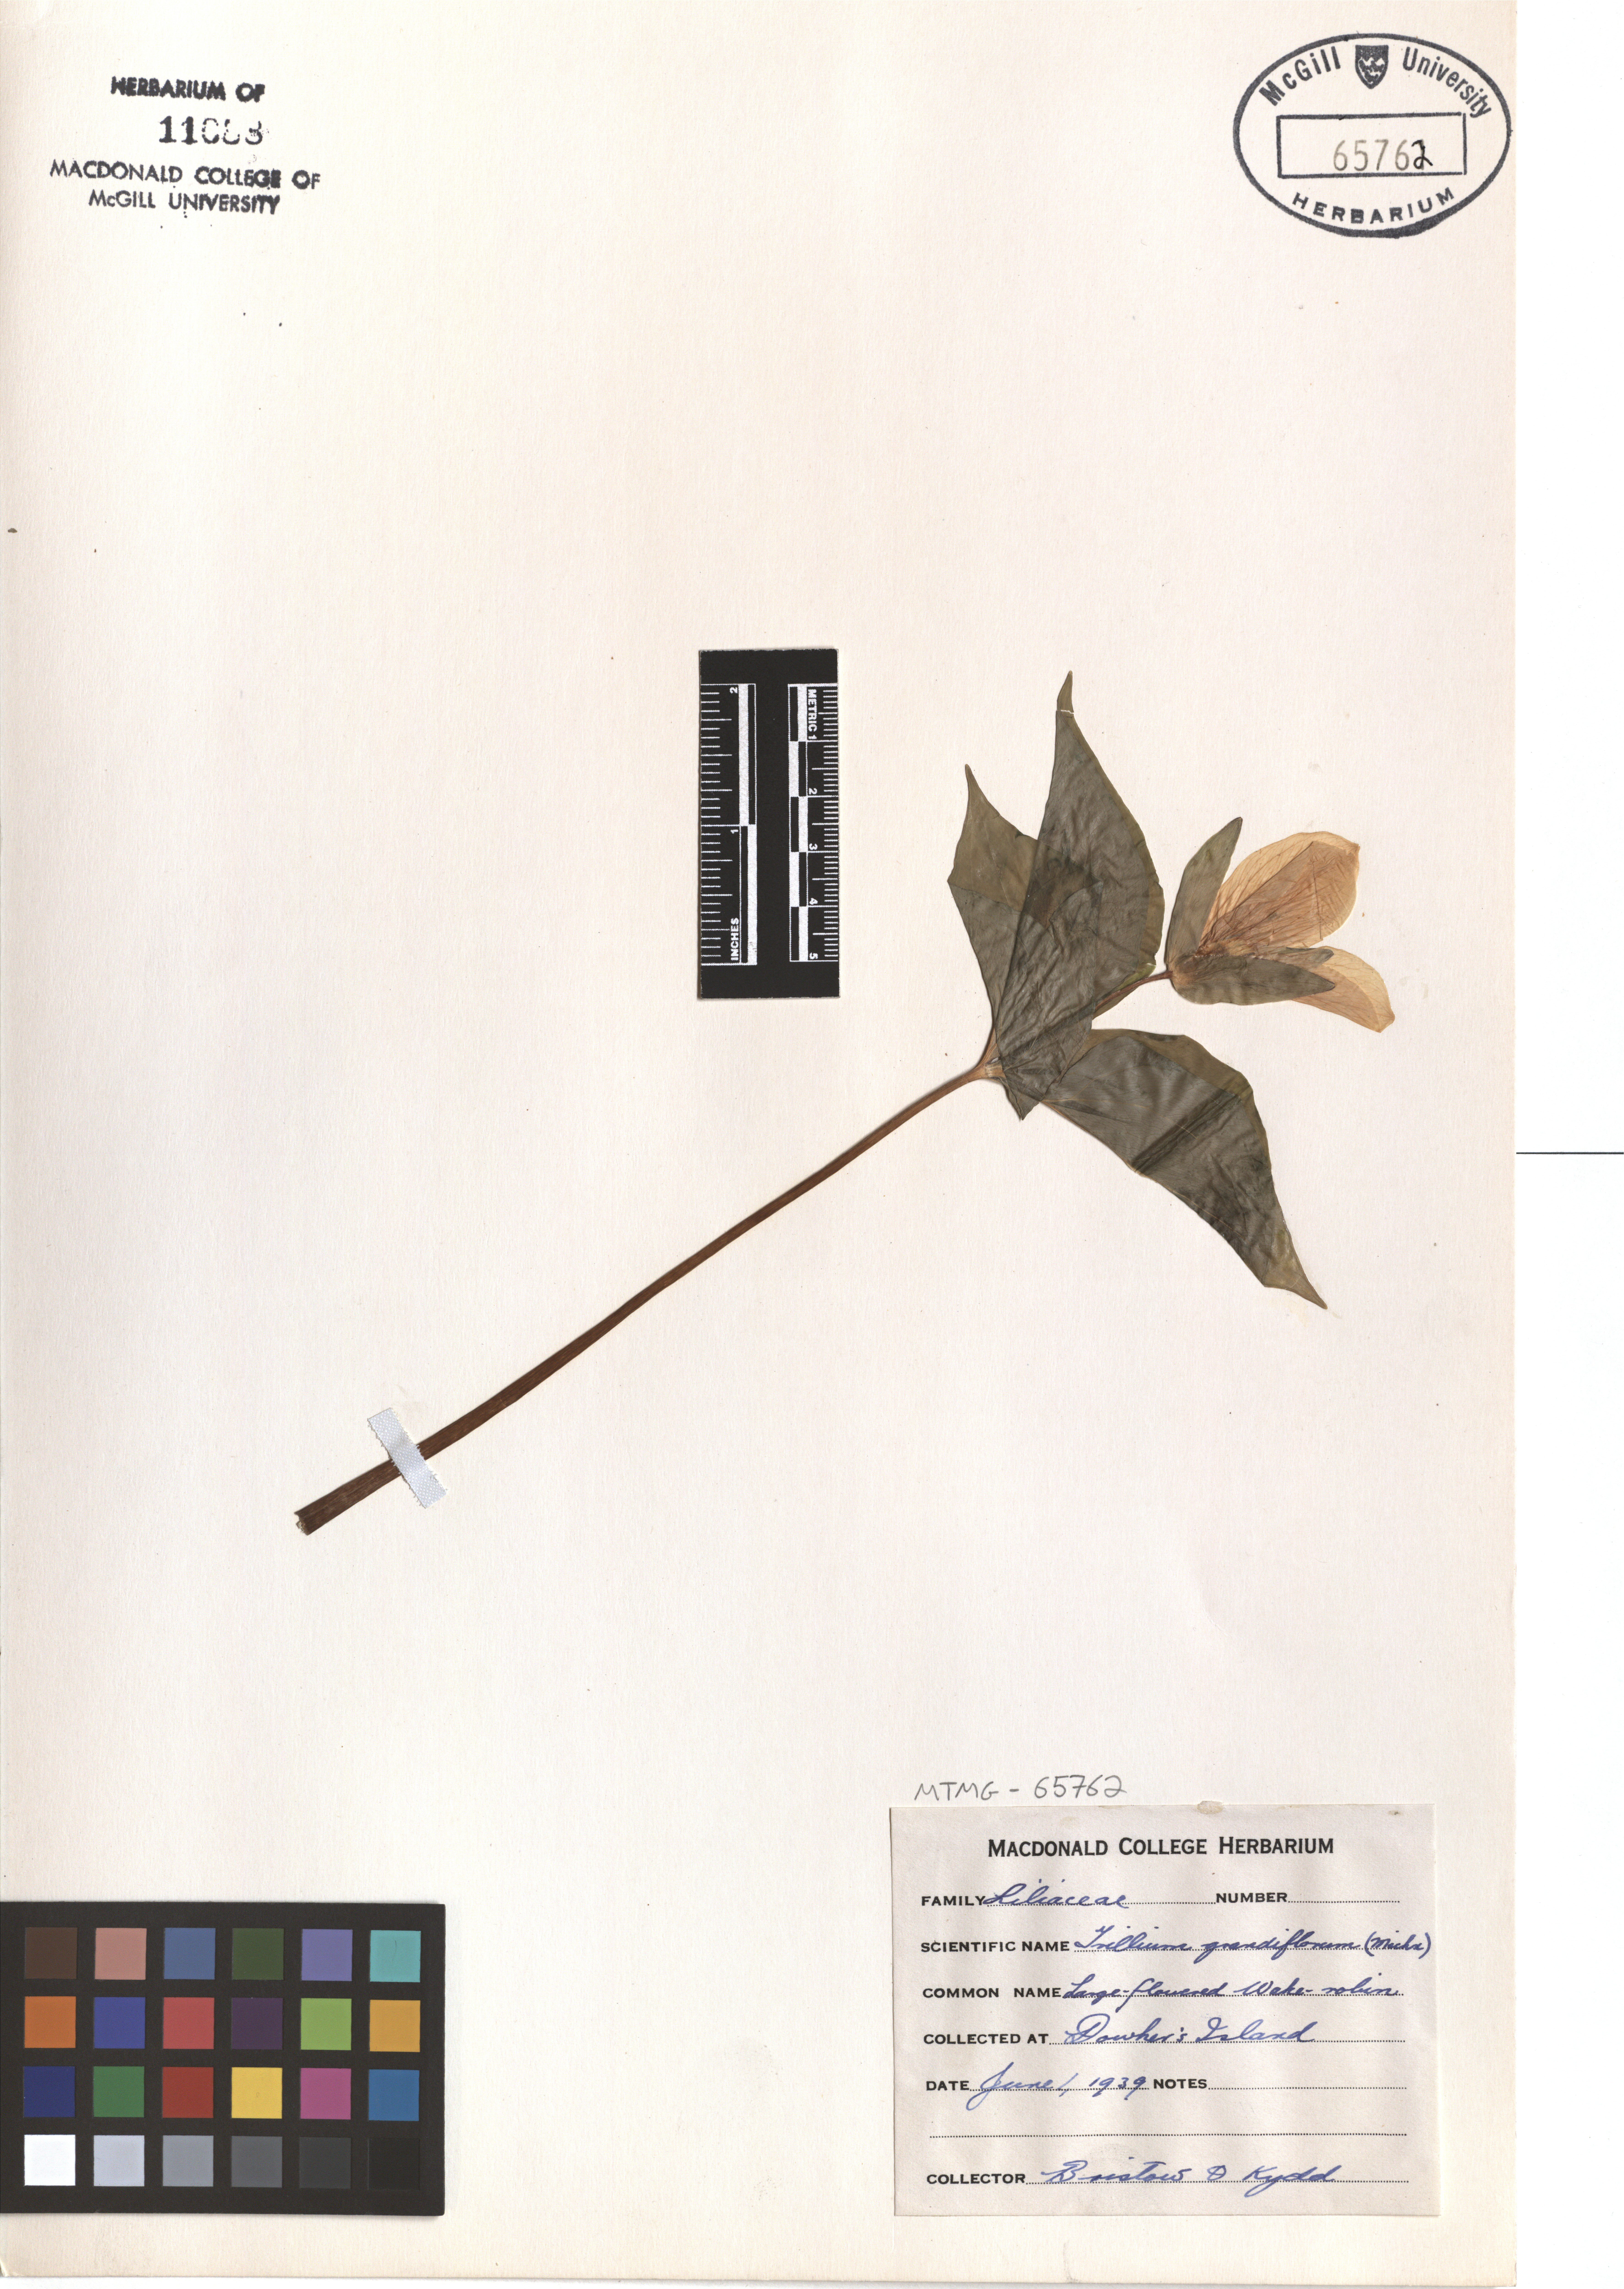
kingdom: Plantae
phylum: Tracheophyta
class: Liliopsida
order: Liliales
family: Melanthiaceae
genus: Trillium
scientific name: Trillium grandiflorum
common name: Great white trillium
